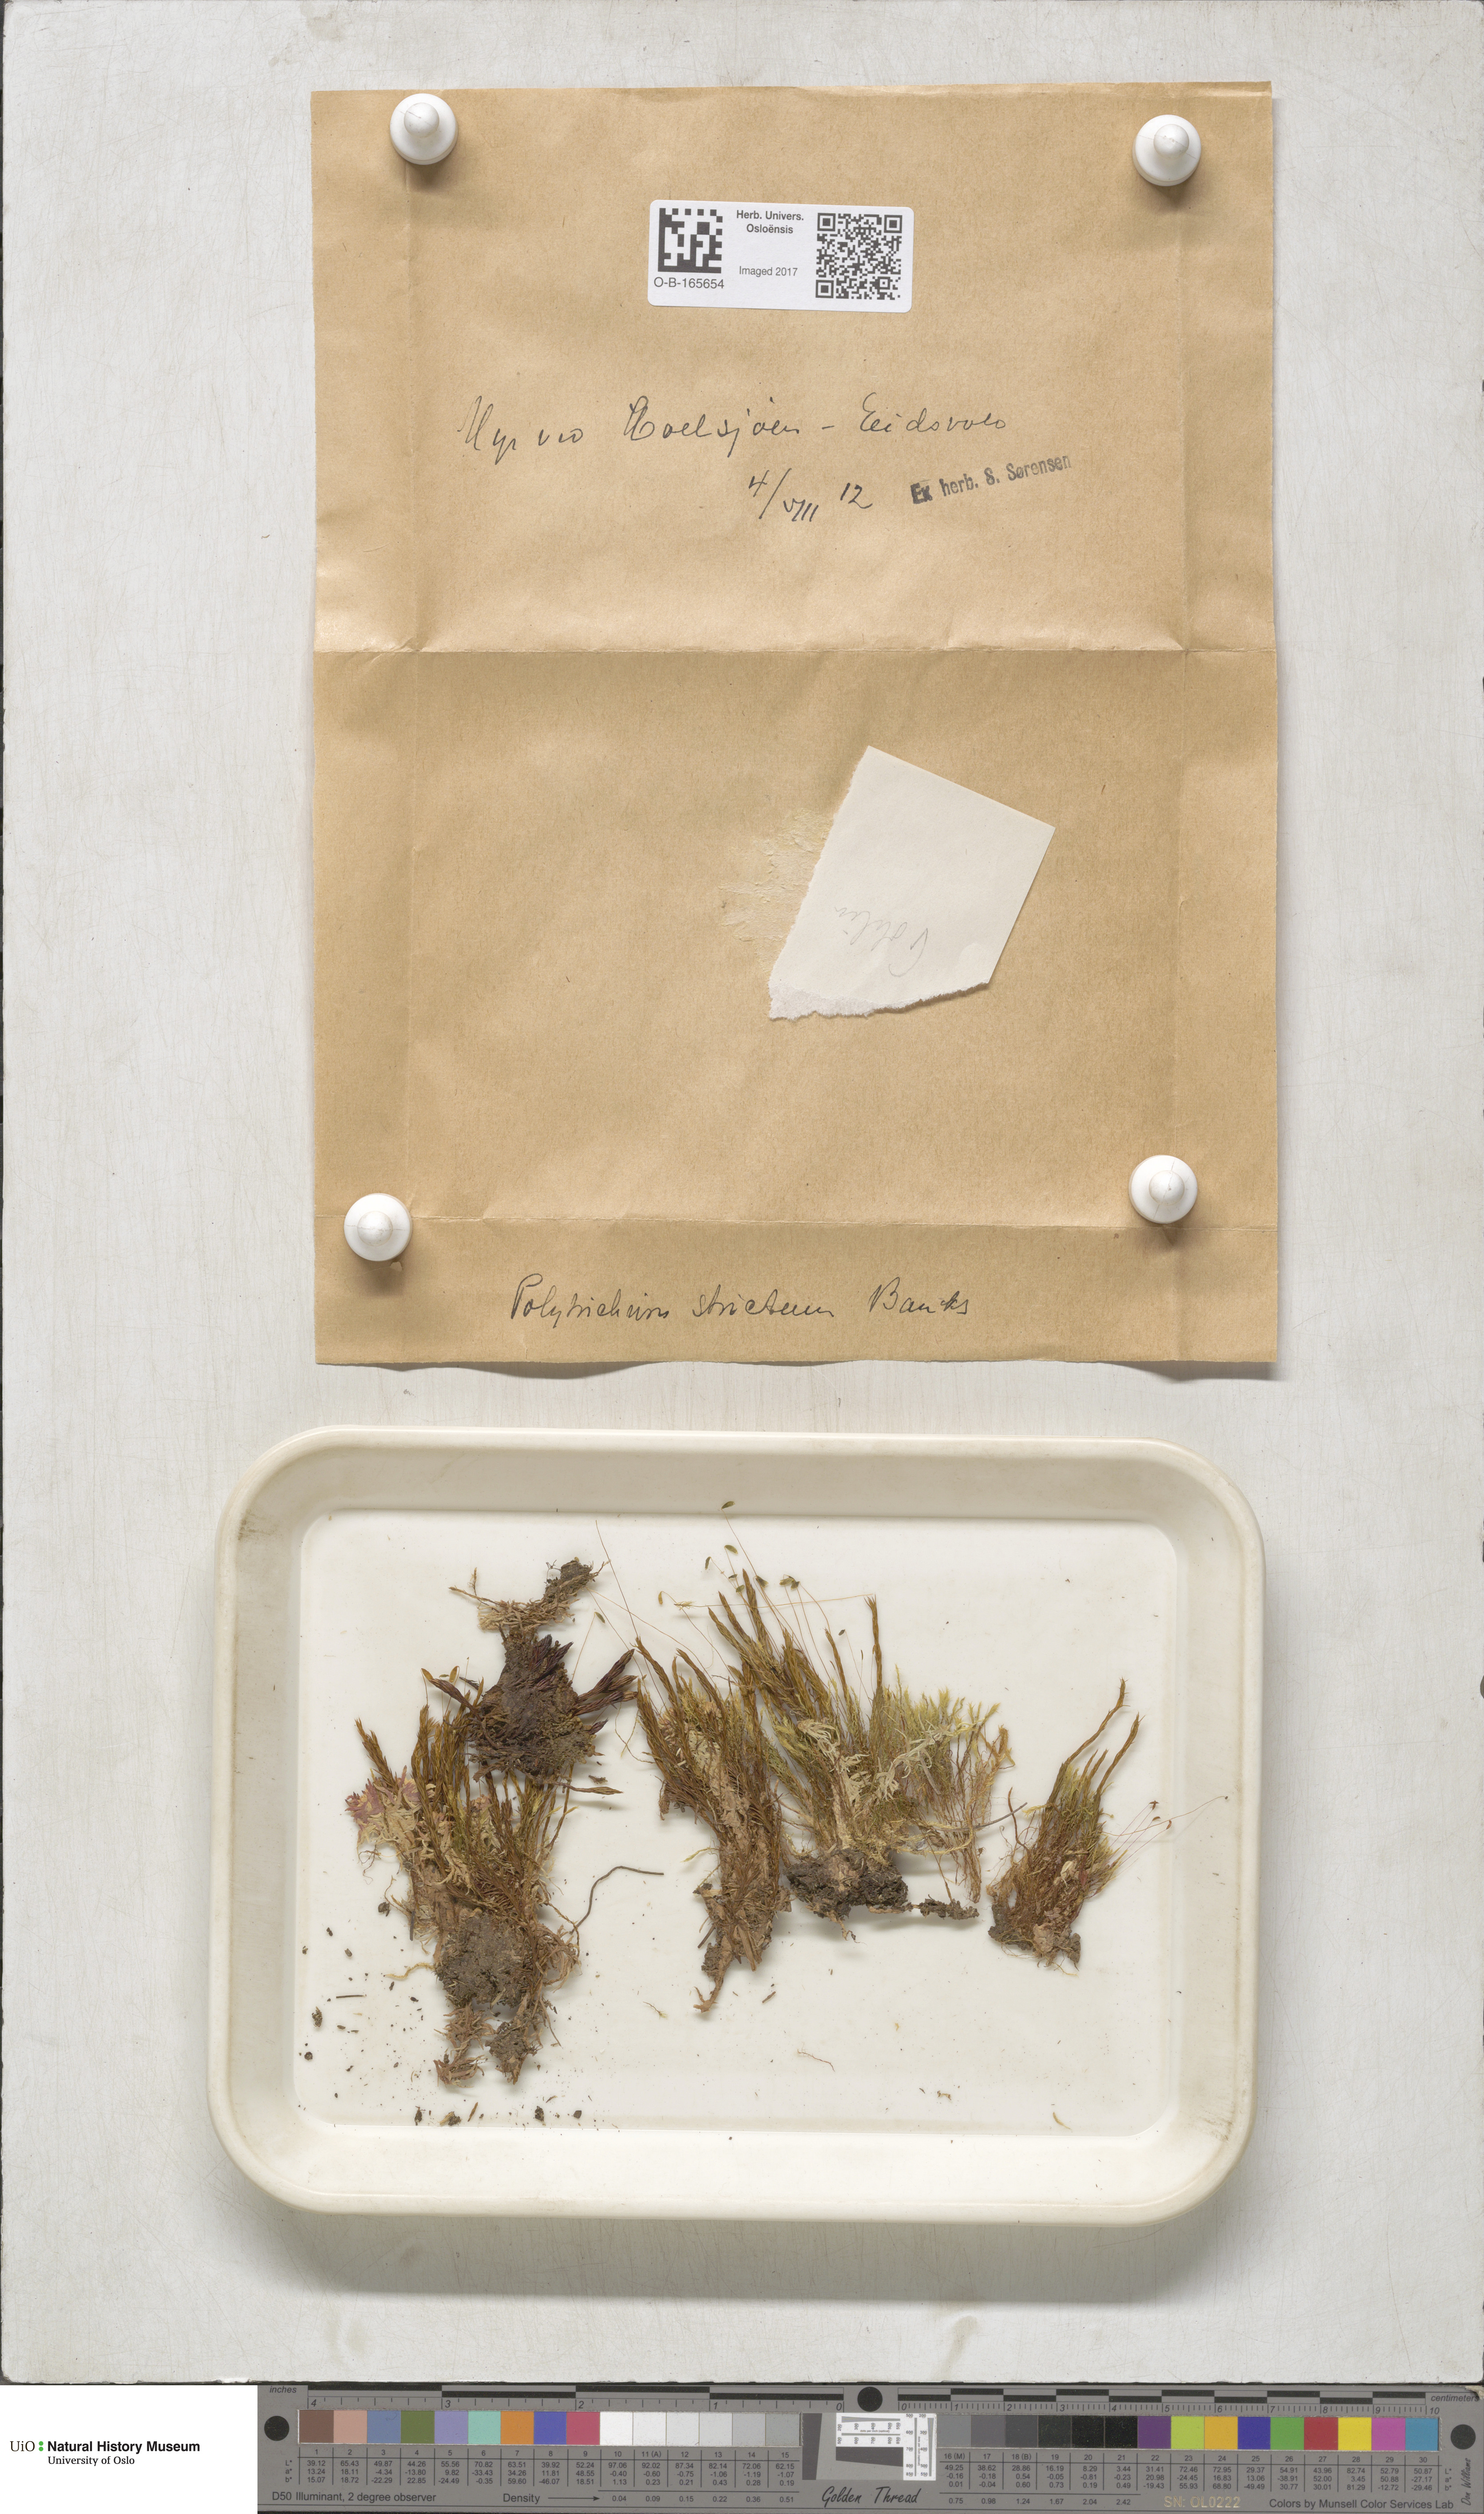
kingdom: Plantae
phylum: Bryophyta
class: Polytrichopsida
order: Polytrichales
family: Polytrichaceae
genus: Polytrichum
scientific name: Polytrichum strictum
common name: Bog haircap moss
